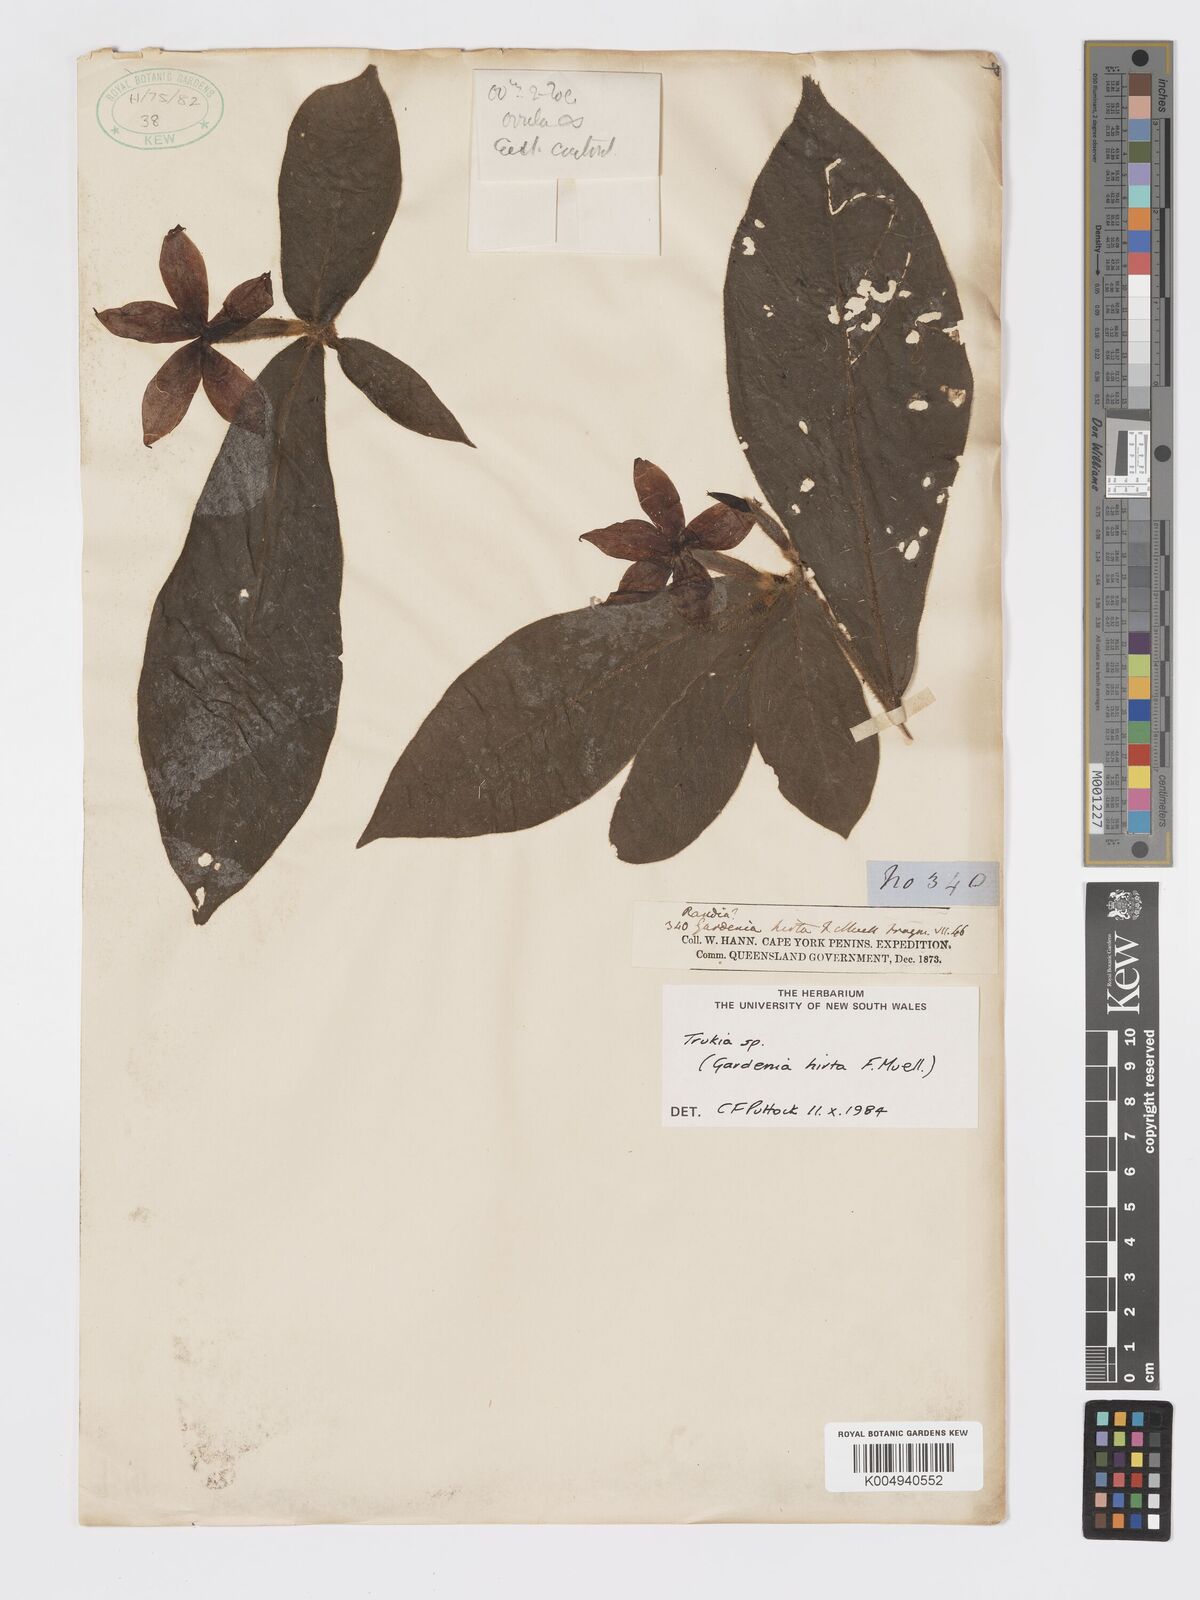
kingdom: Plantae
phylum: Tracheophyta
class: Magnoliopsida
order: Gentianales
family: Rubiaceae
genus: Atractocarpus
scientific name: Atractocarpus hirtus
